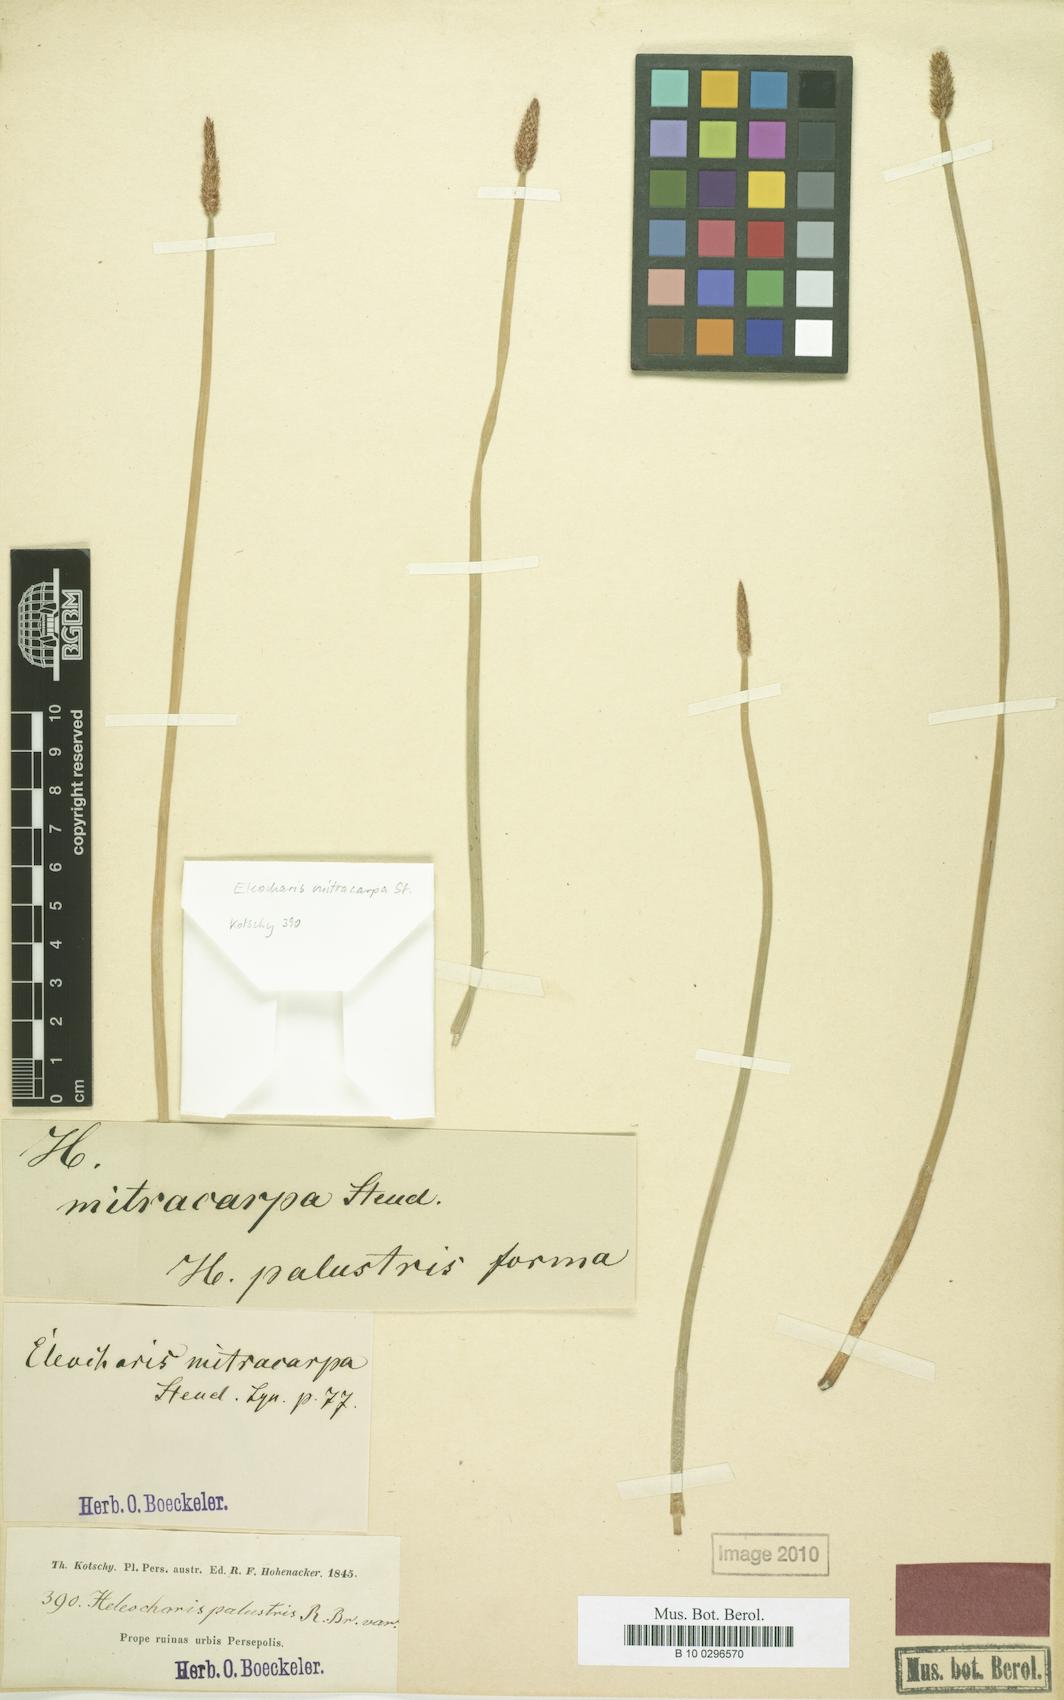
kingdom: Plantae
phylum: Tracheophyta
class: Liliopsida
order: Poales
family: Cyperaceae
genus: Eleocharis
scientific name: Eleocharis mitracarpa
